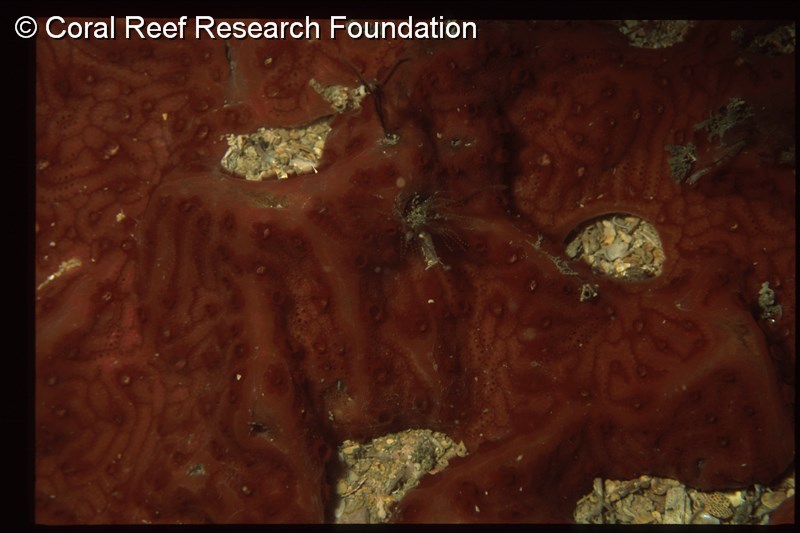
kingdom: Animalia
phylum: Chordata
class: Ascidiacea
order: Stolidobranchia
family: Styelidae
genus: Botryllus
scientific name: Botryllus gregalis
